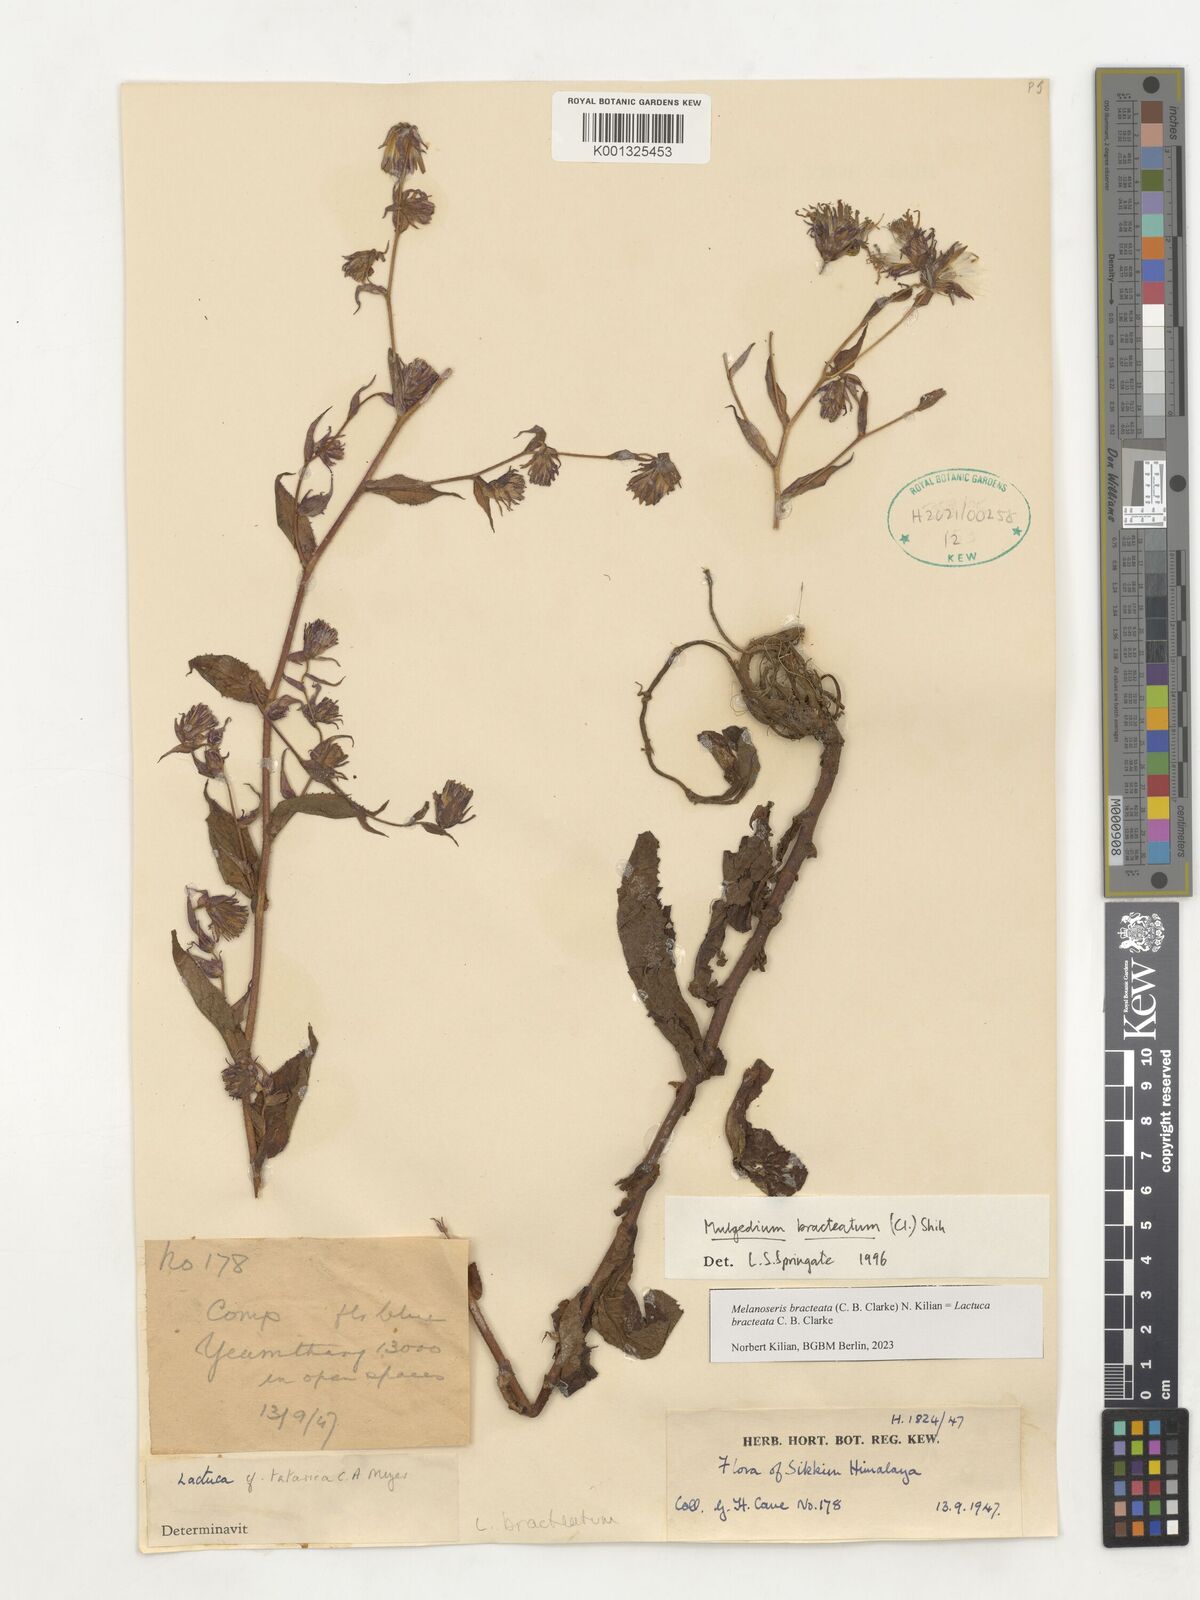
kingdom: Plantae
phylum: Tracheophyta
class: Magnoliopsida
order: Asterales
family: Asteraceae
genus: Lactuca
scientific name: Lactuca bracteata
